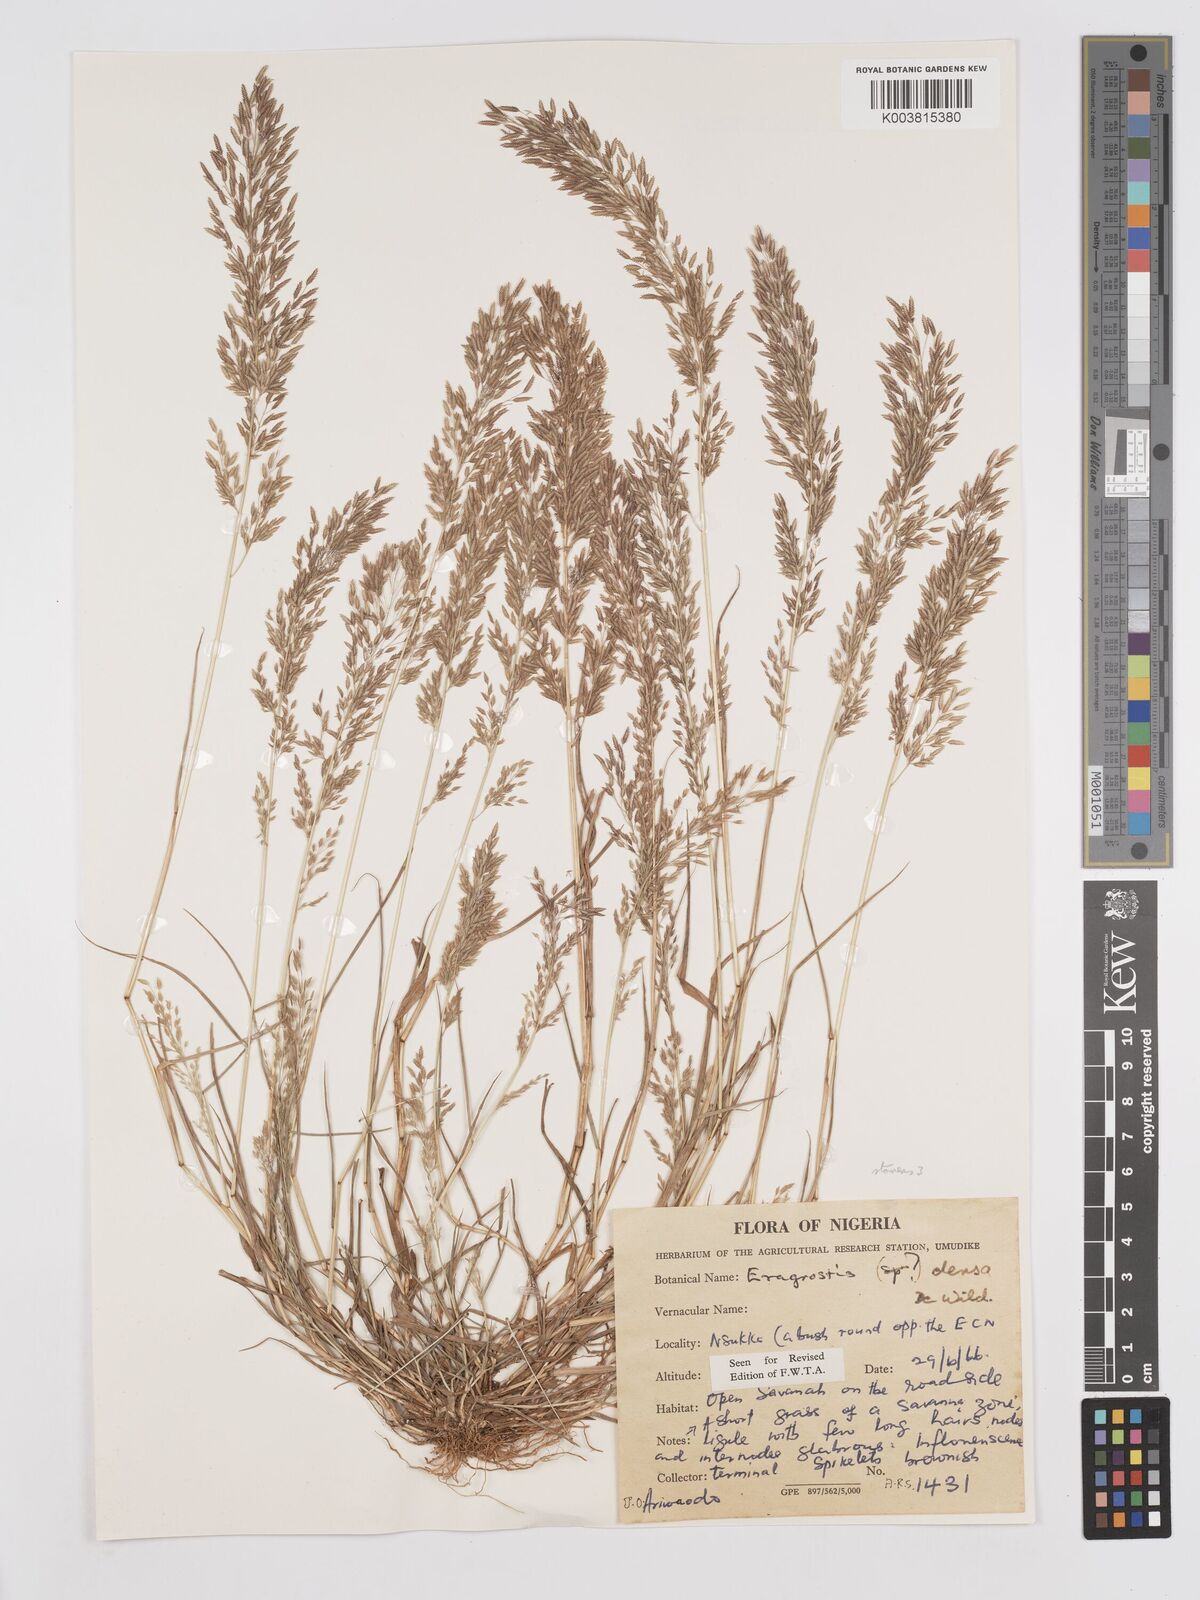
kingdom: Plantae
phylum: Tracheophyta
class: Liliopsida
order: Poales
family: Poaceae
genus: Eragrostis
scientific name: Eragrostis welwitschii
